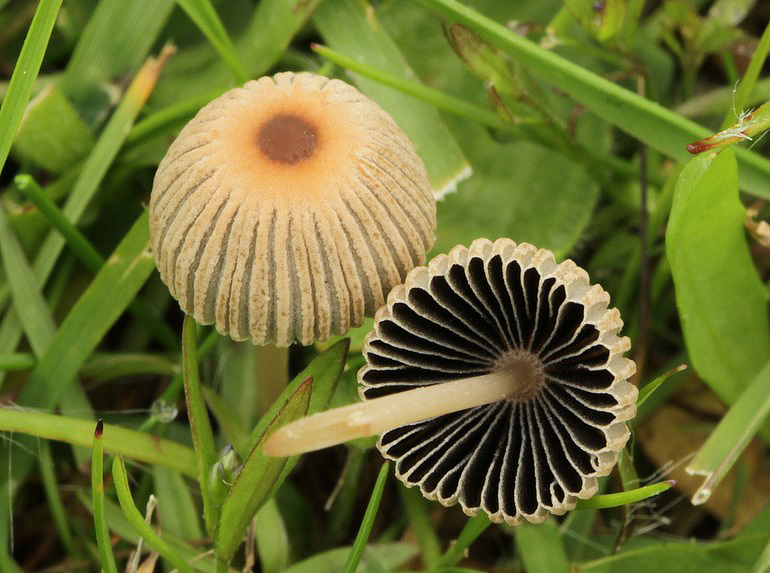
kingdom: Fungi
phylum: Basidiomycota
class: Agaricomycetes
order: Agaricales
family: Psathyrellaceae
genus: Parasola
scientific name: Parasola schroeteri
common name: bredsporet hjulhat
